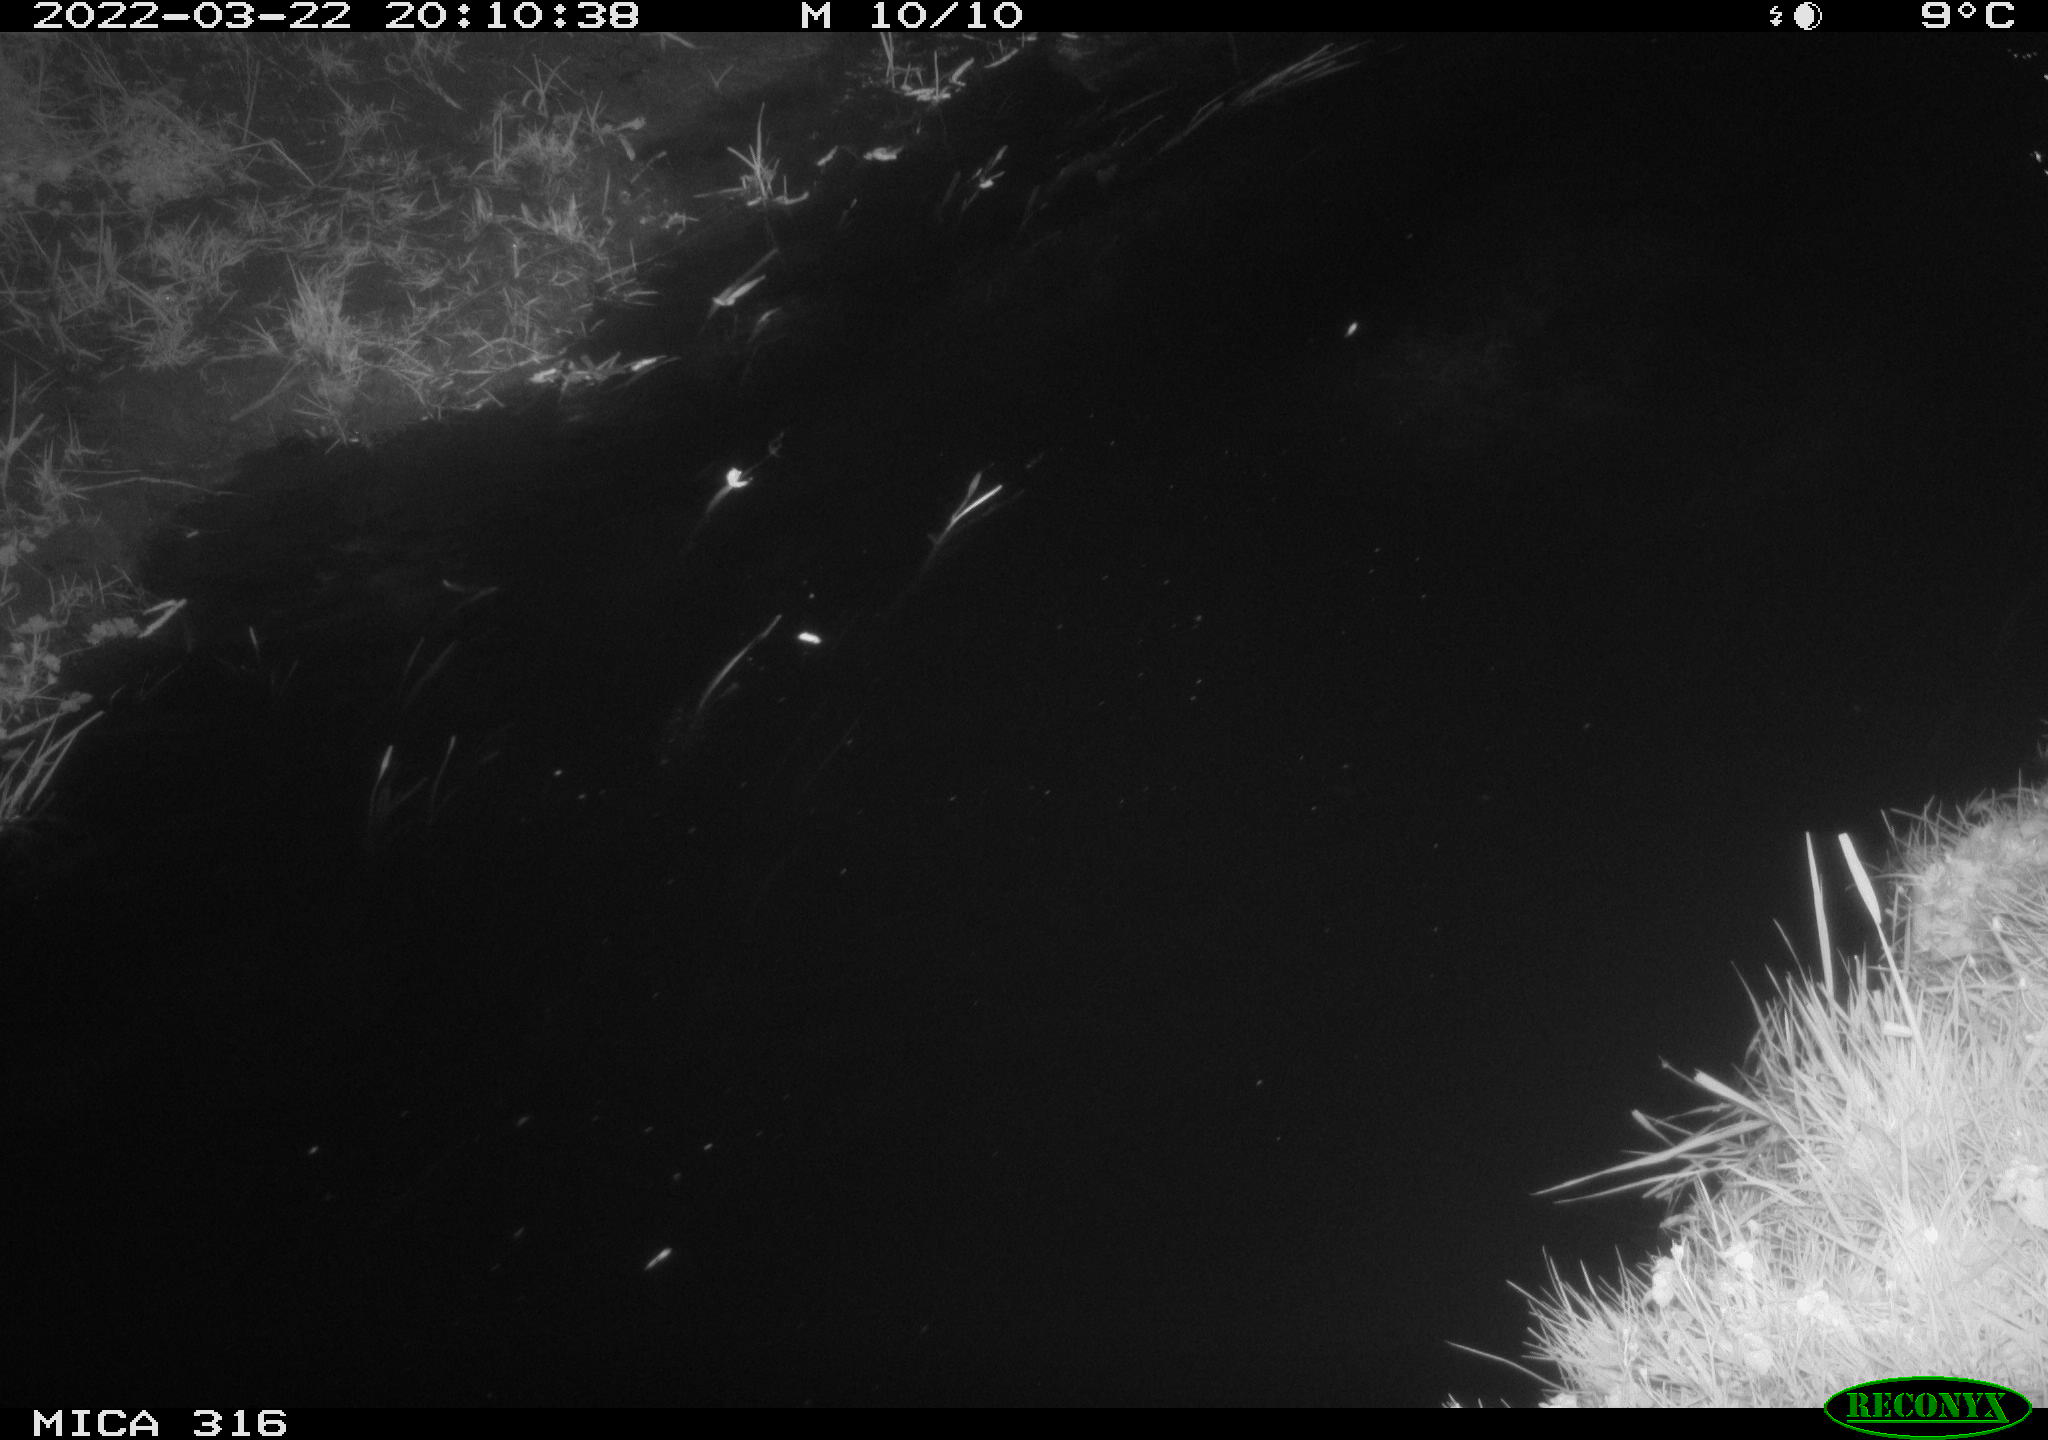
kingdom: Animalia
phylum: Chordata
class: Aves
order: Anseriformes
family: Anatidae
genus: Anas
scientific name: Anas platyrhynchos
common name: Mallard
